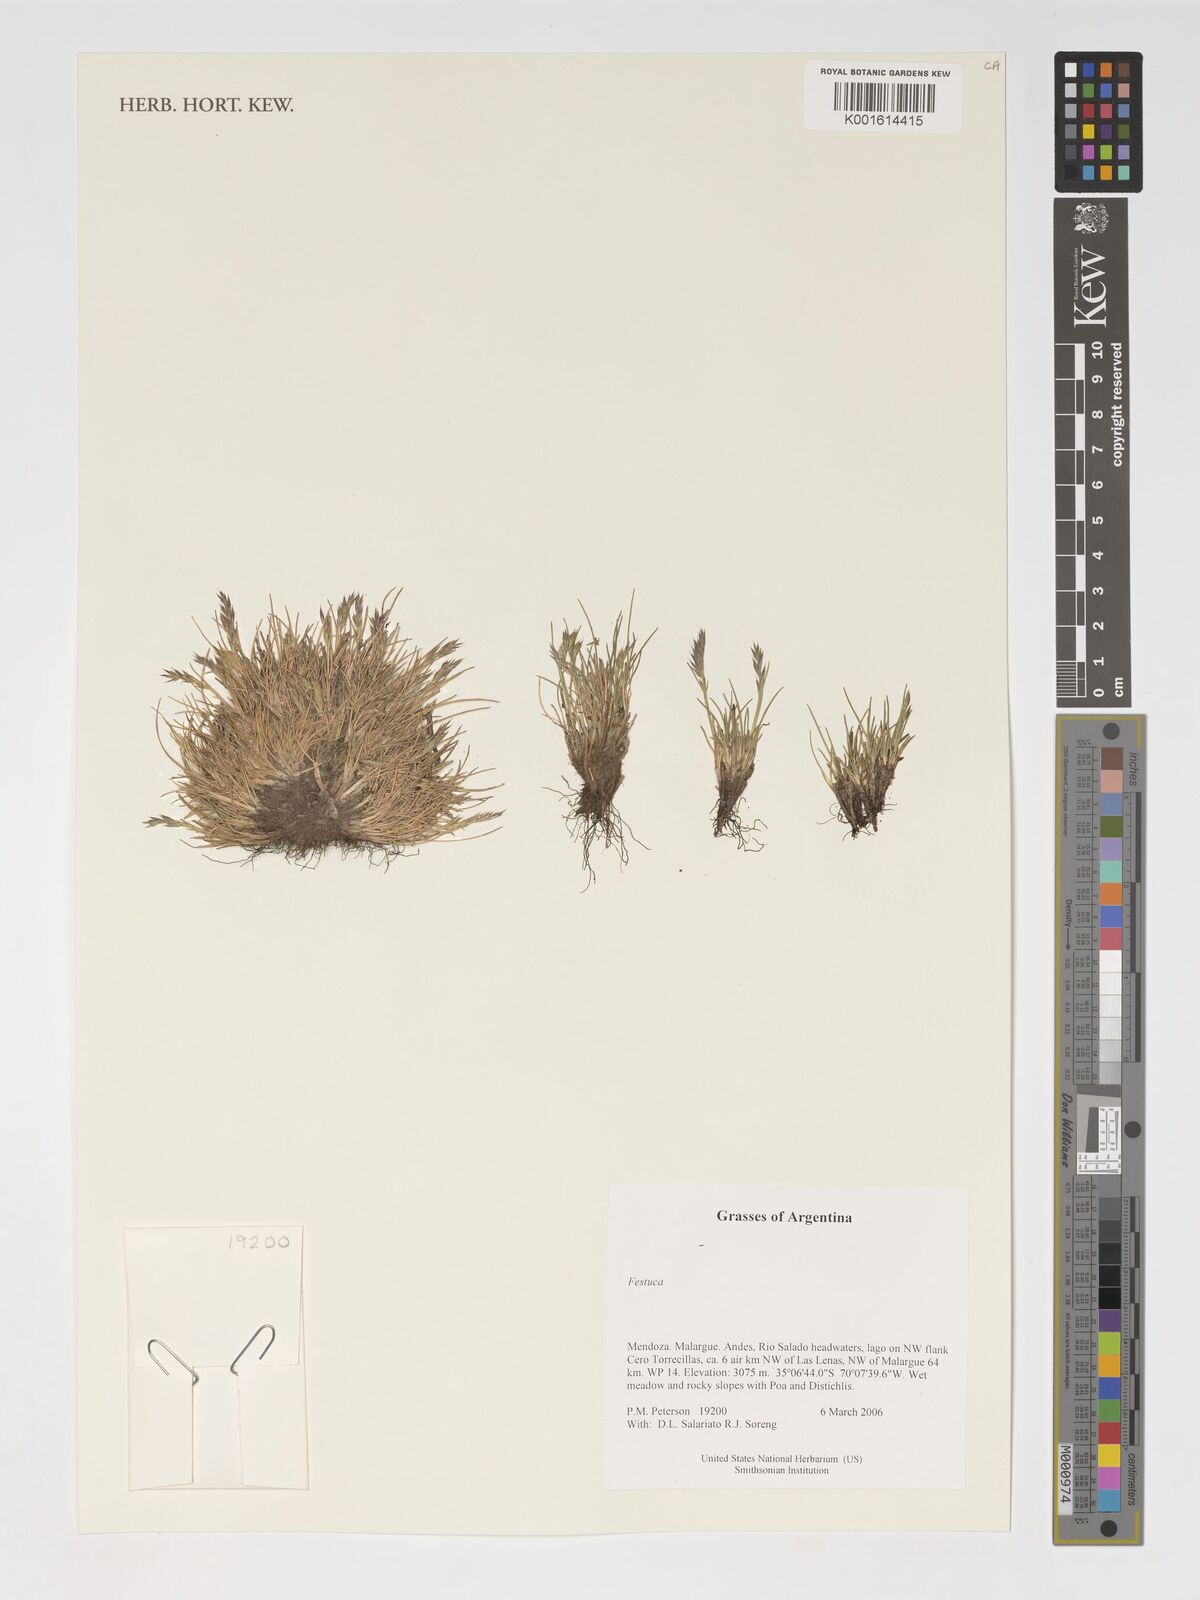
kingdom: Plantae
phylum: Tracheophyta
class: Liliopsida
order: Poales
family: Poaceae
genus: Festuca
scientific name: Festuca
